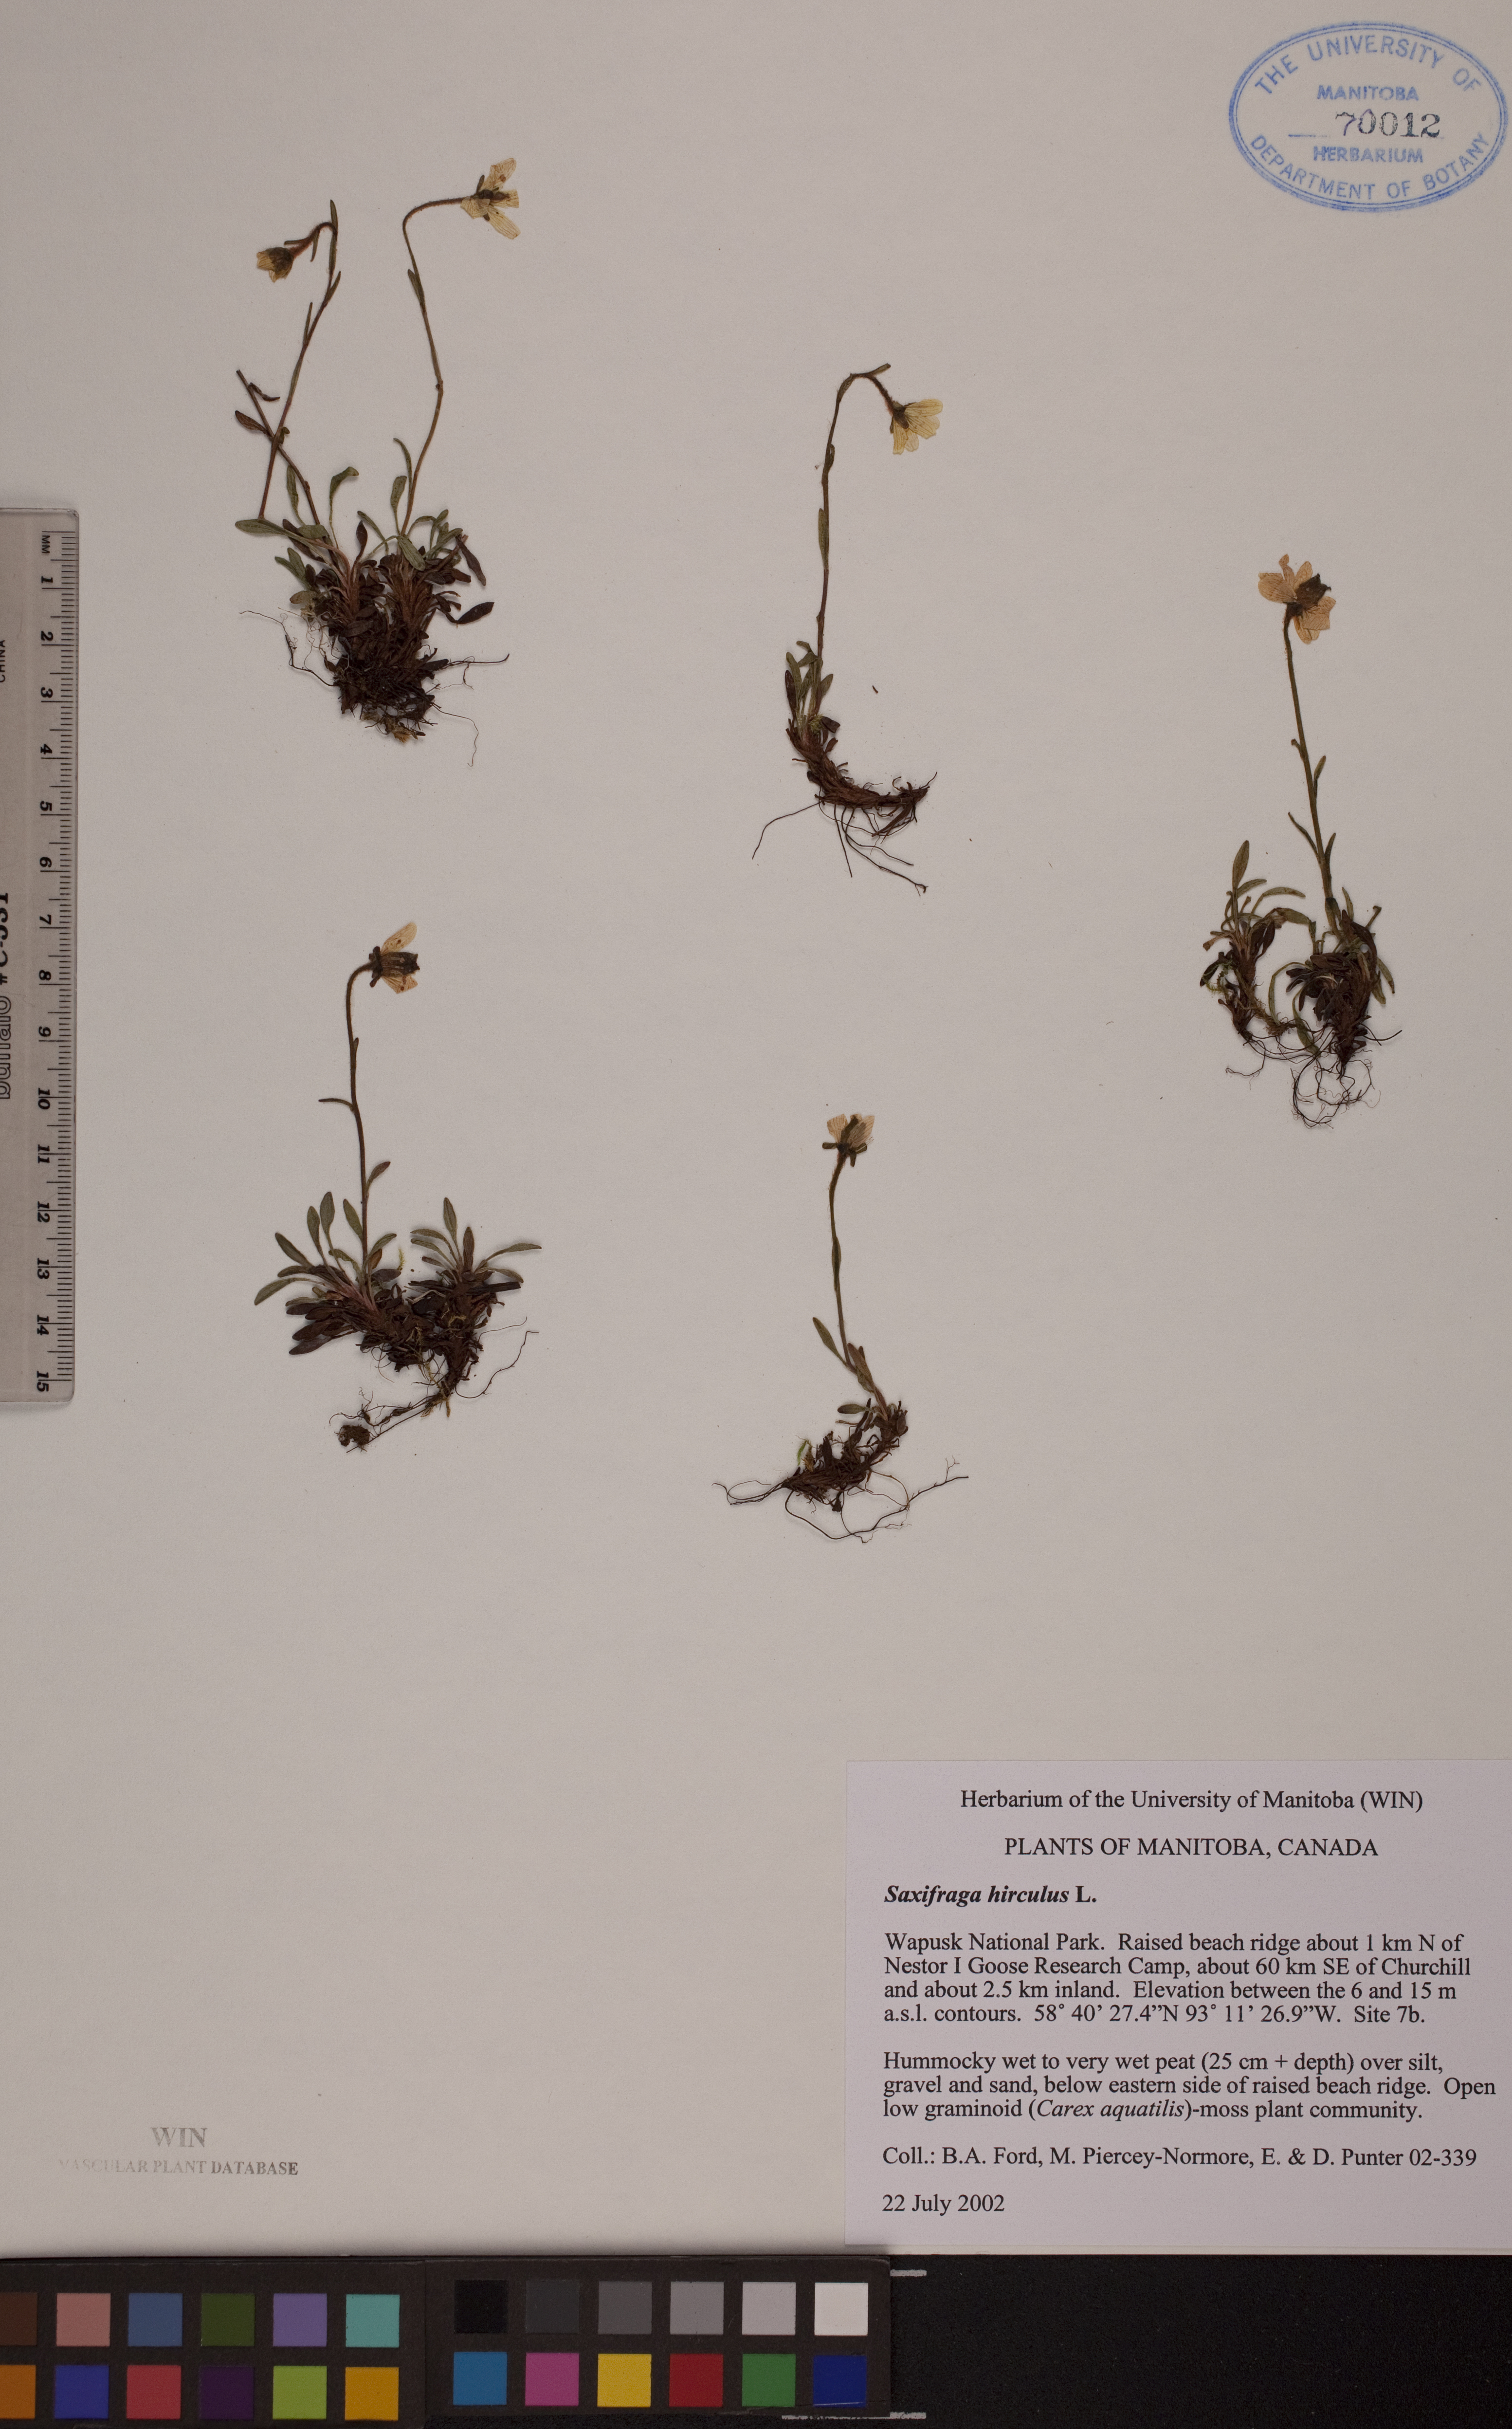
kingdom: Plantae
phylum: Tracheophyta
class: Magnoliopsida
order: Saxifragales
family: Saxifragaceae
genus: Saxifraga
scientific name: Saxifraga hirculus
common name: Yellow marsh saxifrage
